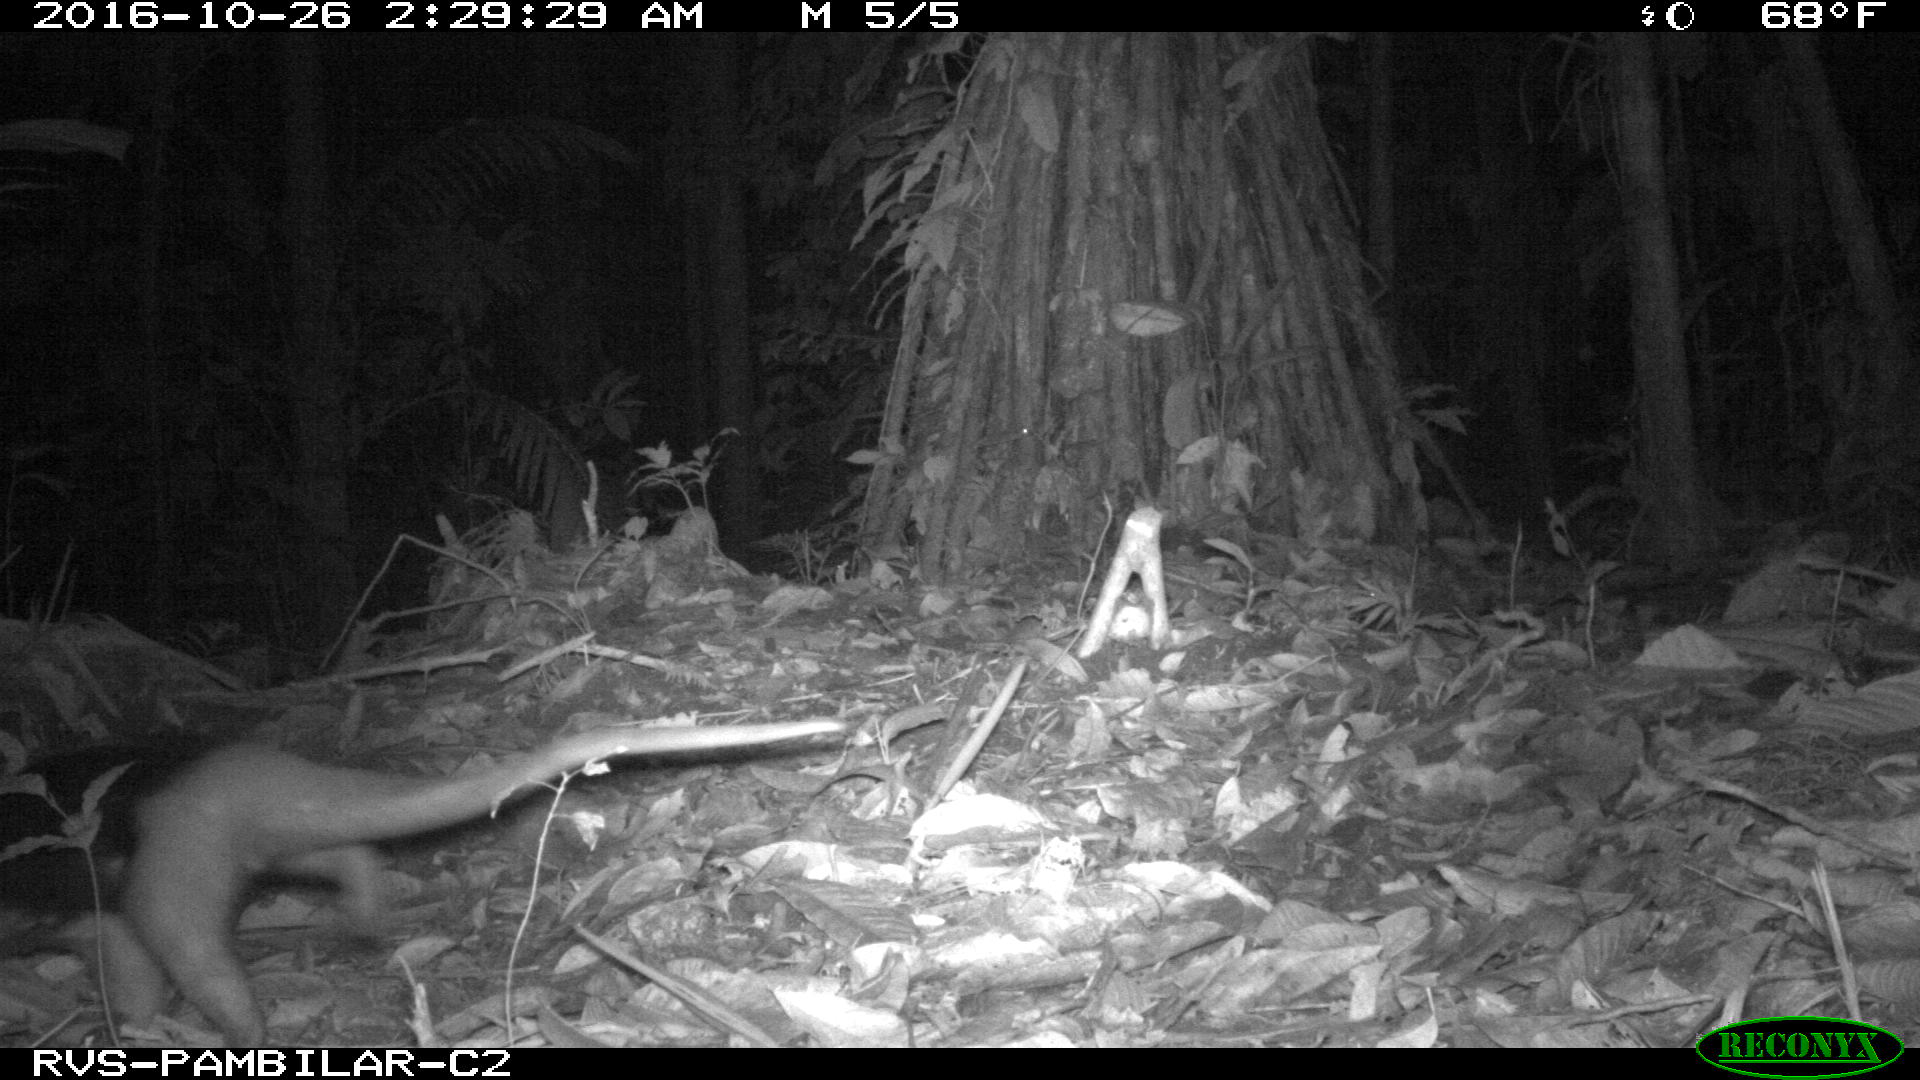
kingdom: Animalia
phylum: Chordata
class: Mammalia
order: Pilosa
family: Myrmecophagidae
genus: Tamandua
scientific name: Tamandua mexicana
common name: Northern tamandua
